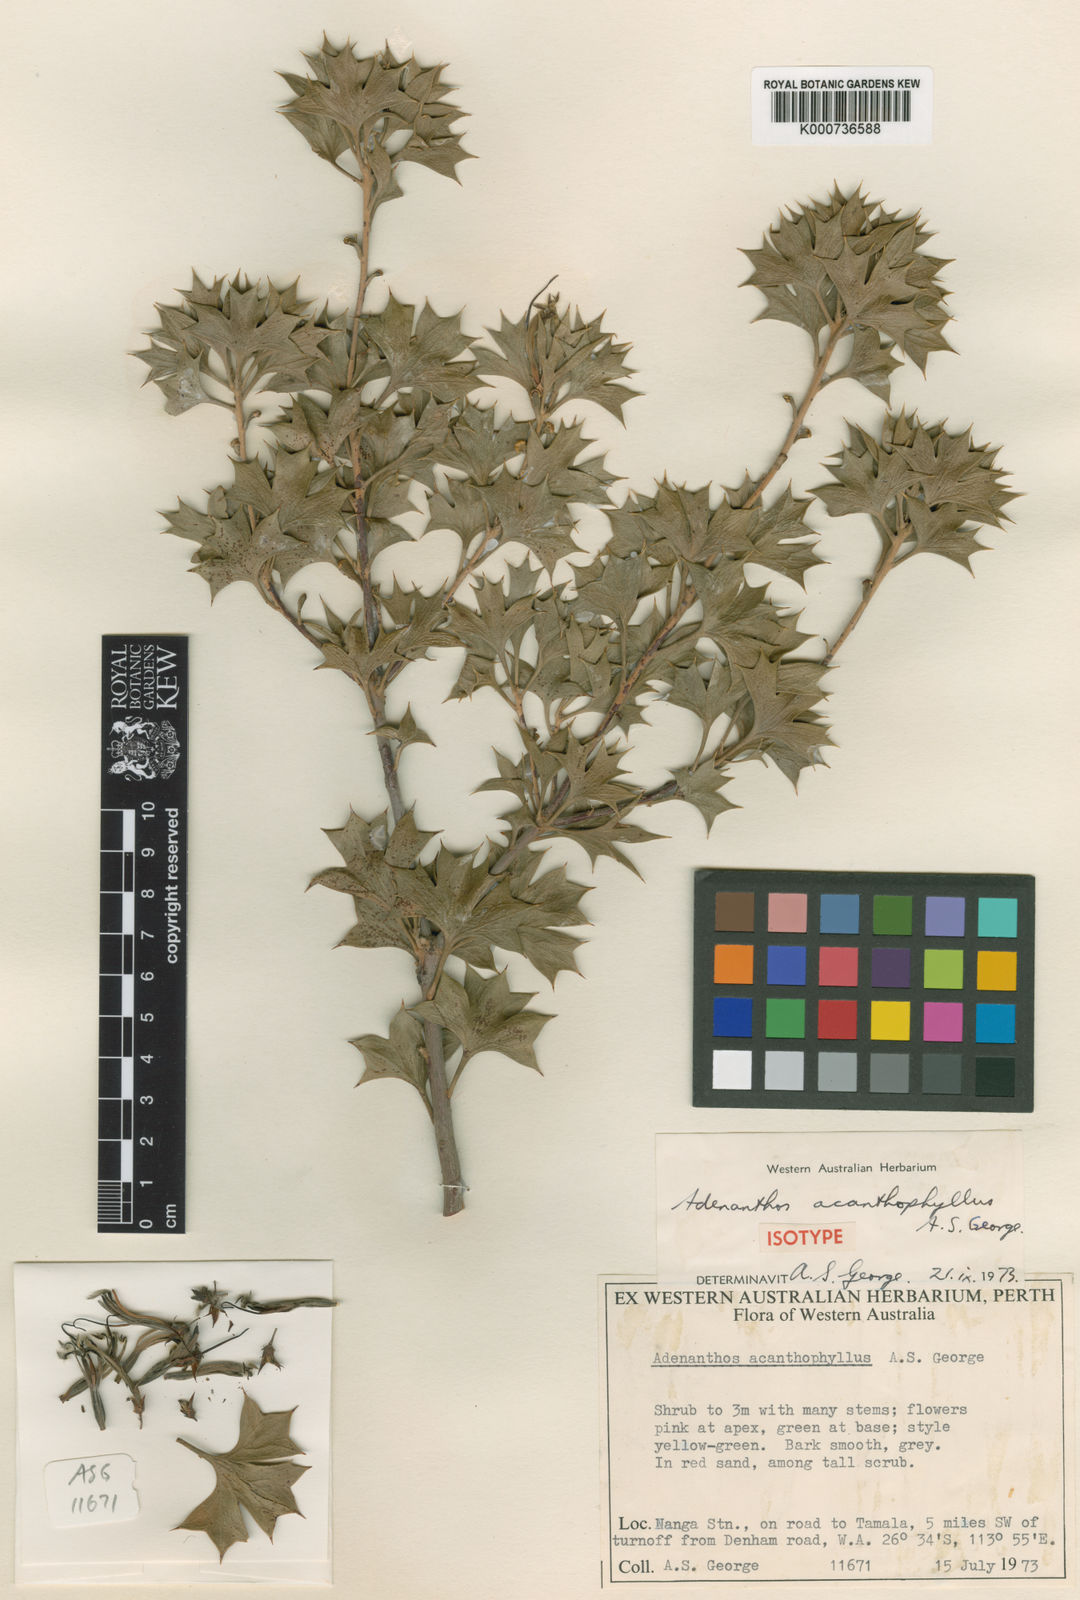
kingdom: Plantae
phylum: Tracheophyta
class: Magnoliopsida
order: Proteales
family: Proteaceae
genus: Adenanthos
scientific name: Adenanthos acanthophyllus
